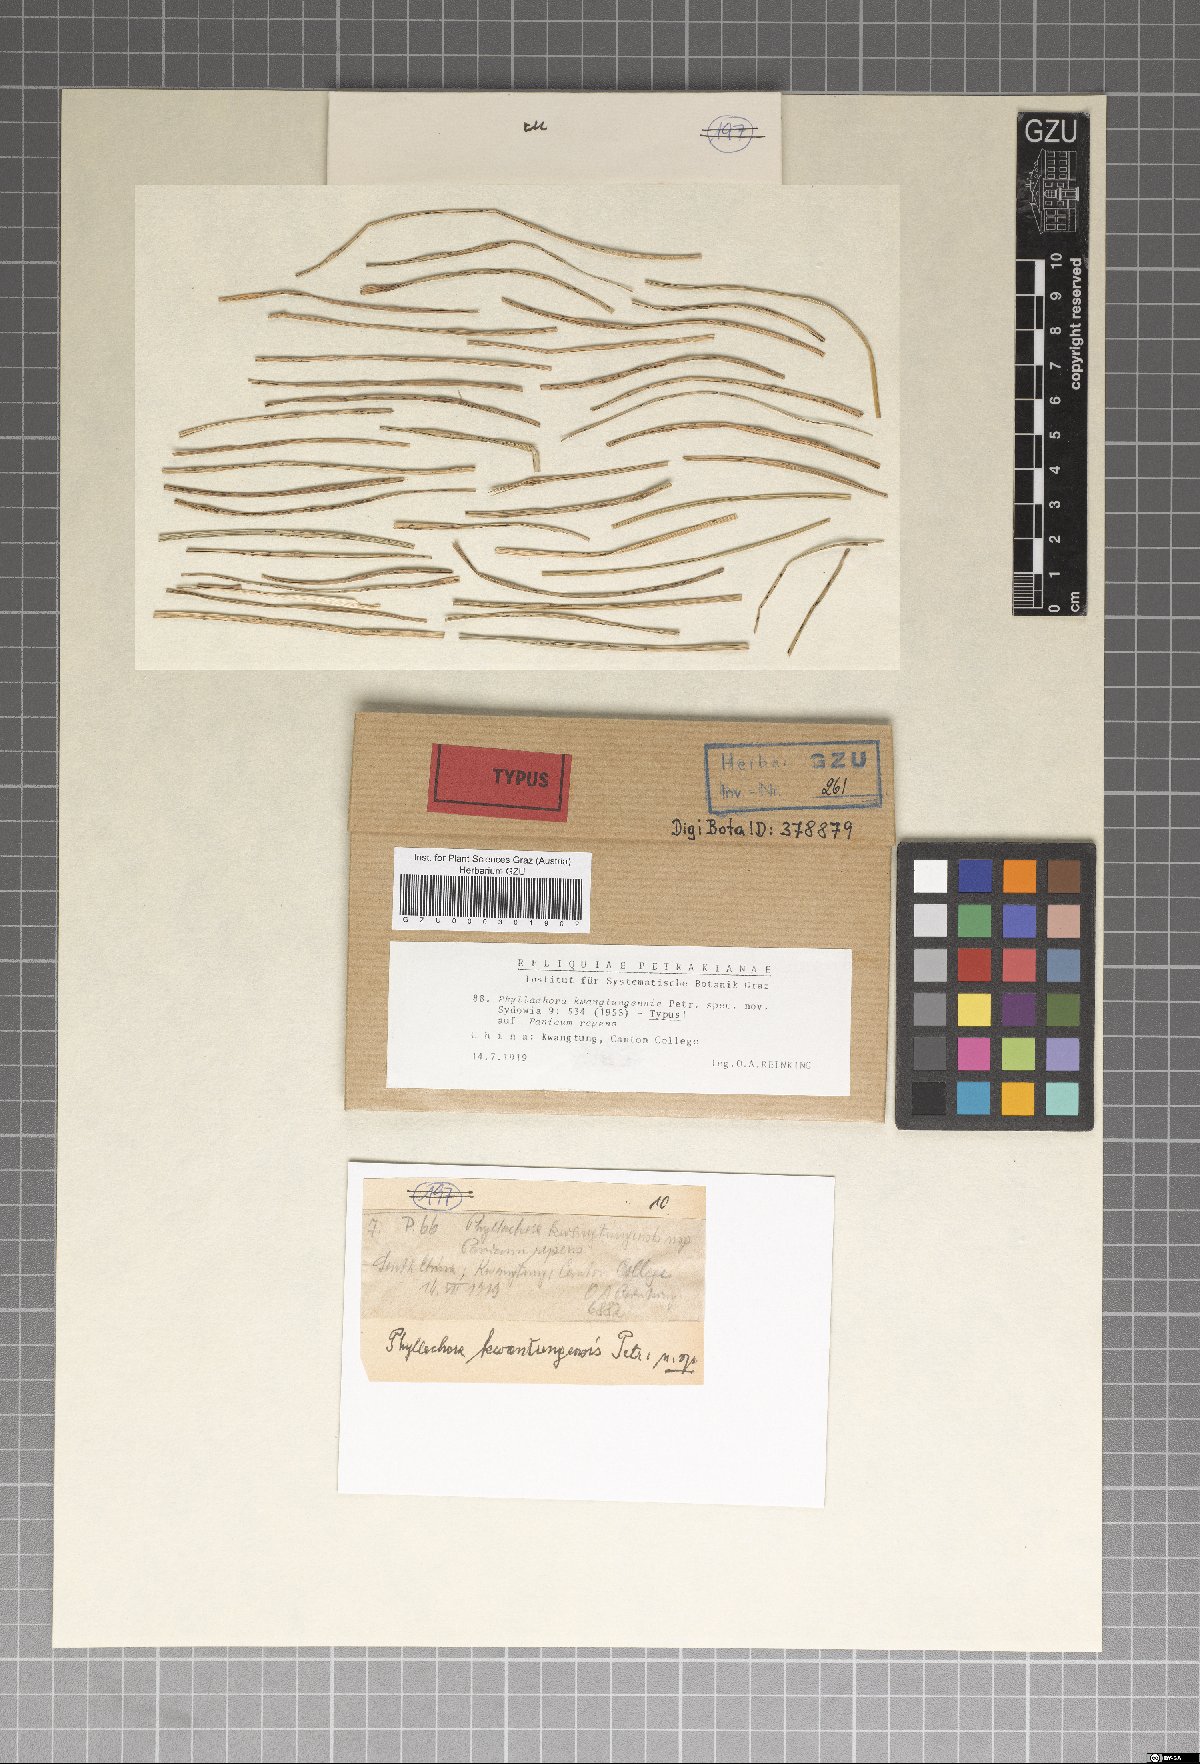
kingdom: Fungi
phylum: Ascomycota
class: Sordariomycetes
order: Phyllachorales
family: Phyllachoraceae
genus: Phyllachora
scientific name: Phyllachora kwangtungensis
